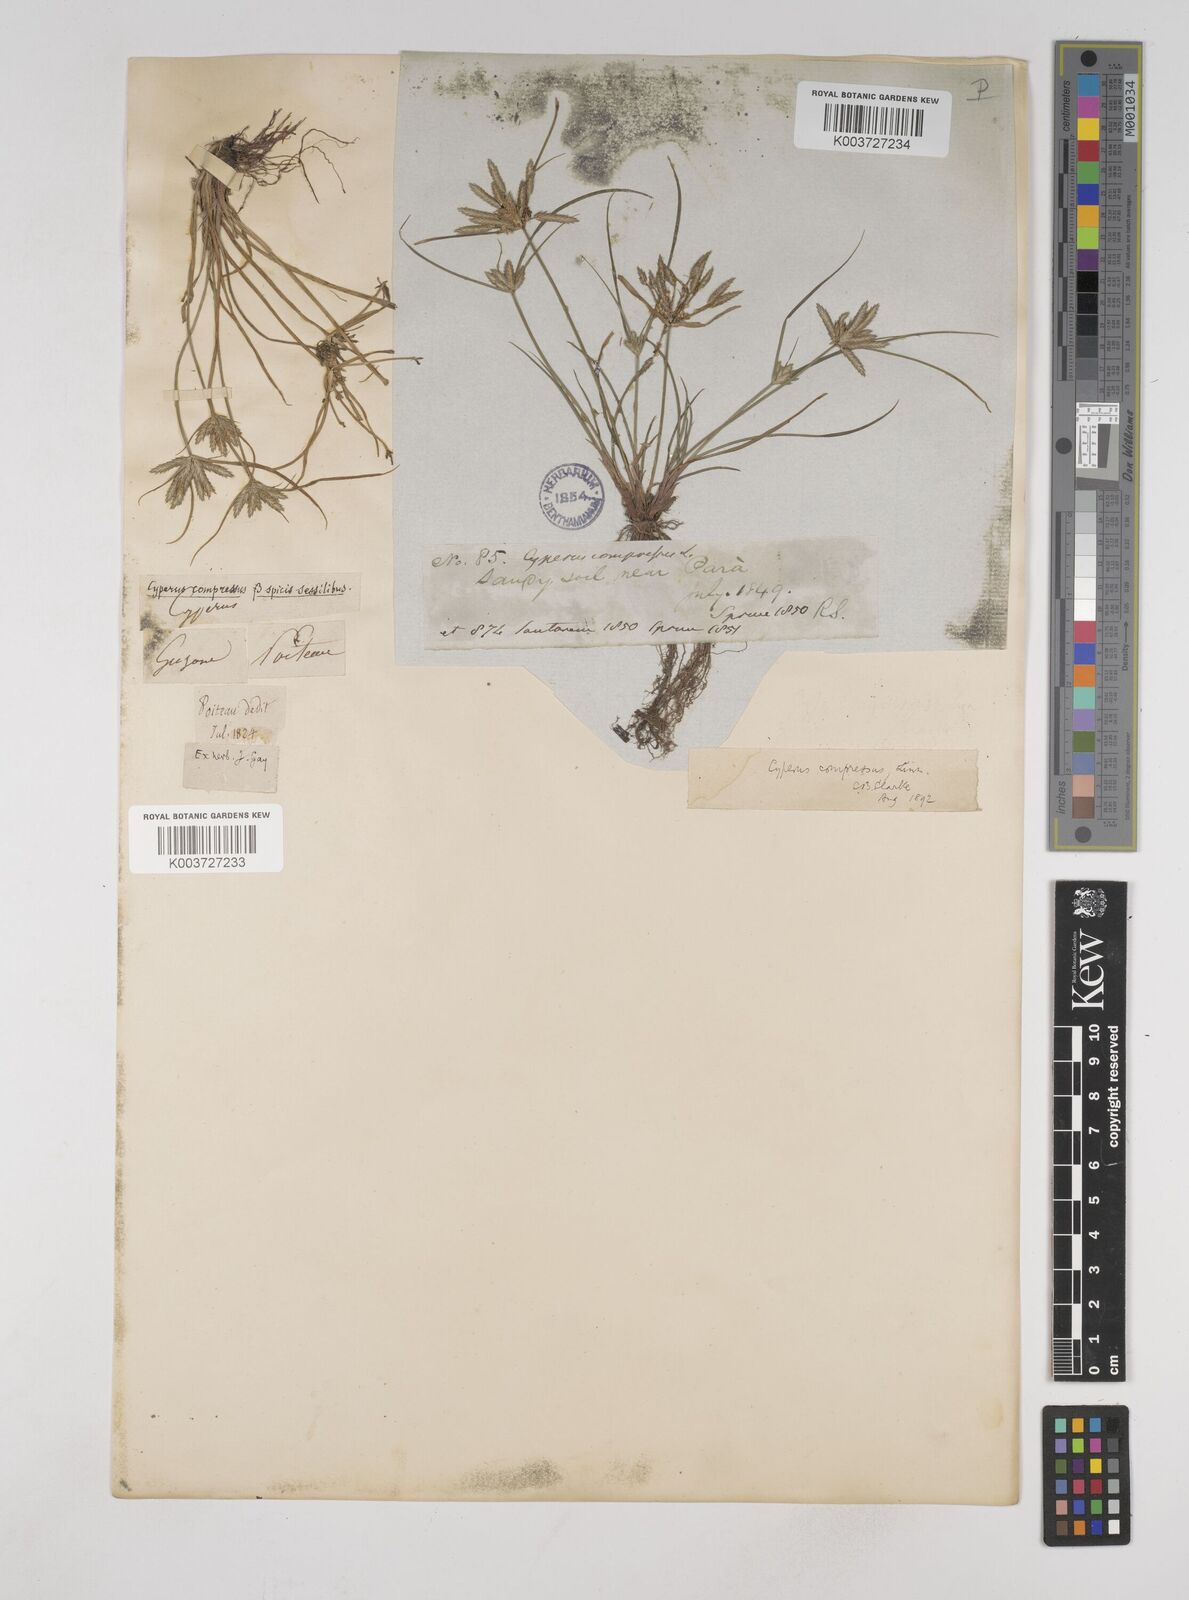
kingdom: Plantae
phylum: Tracheophyta
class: Liliopsida
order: Poales
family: Cyperaceae
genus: Cyperus
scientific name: Cyperus compressus
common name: Poorland flatsedge
